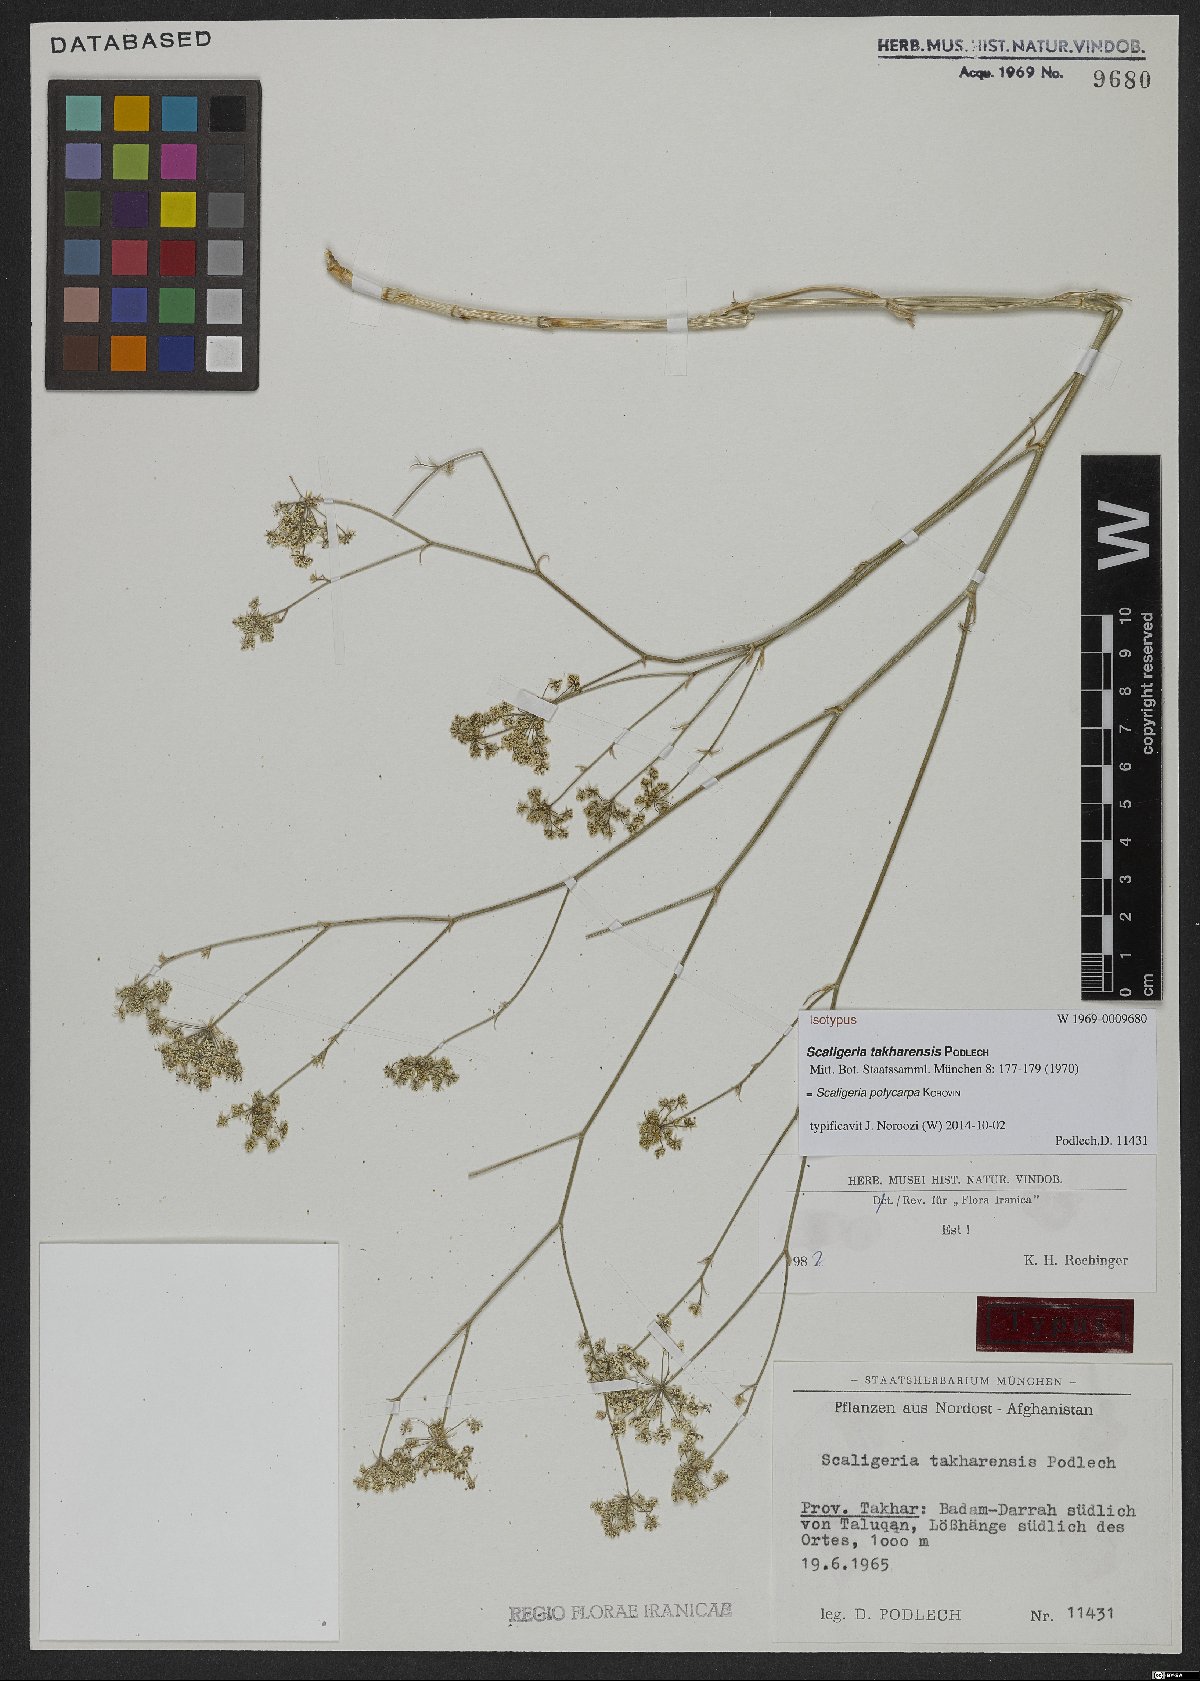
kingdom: Plantae
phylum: Tracheophyta
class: Magnoliopsida
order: Apiales
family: Apiaceae
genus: Scaligeria
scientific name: Scaligeria polycarpa
